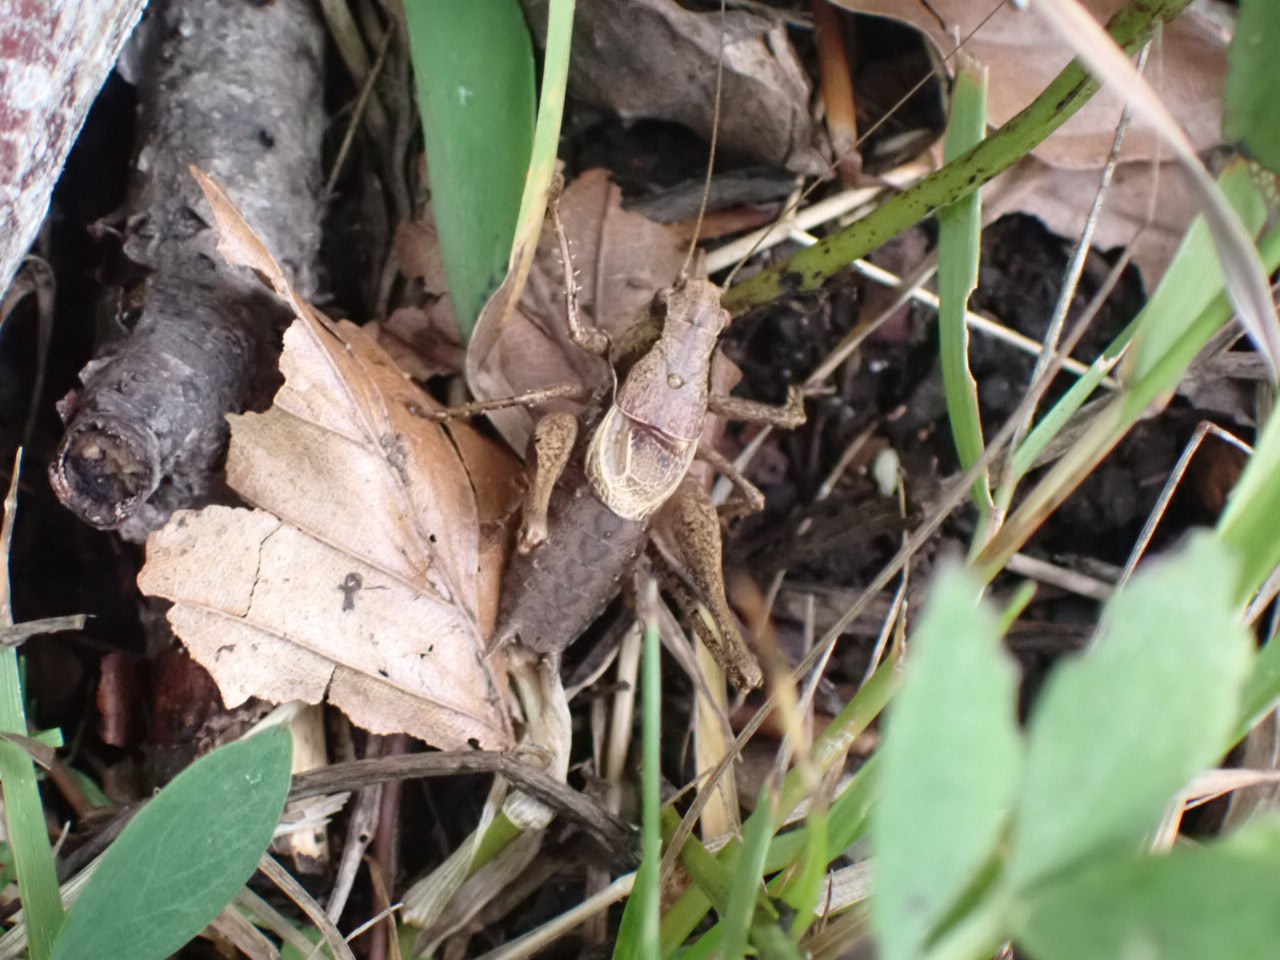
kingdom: Animalia
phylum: Arthropoda
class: Insecta
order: Orthoptera
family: Tettigoniidae
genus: Pholidoptera
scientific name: Pholidoptera griseoaptera
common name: Buskgræshoppe
